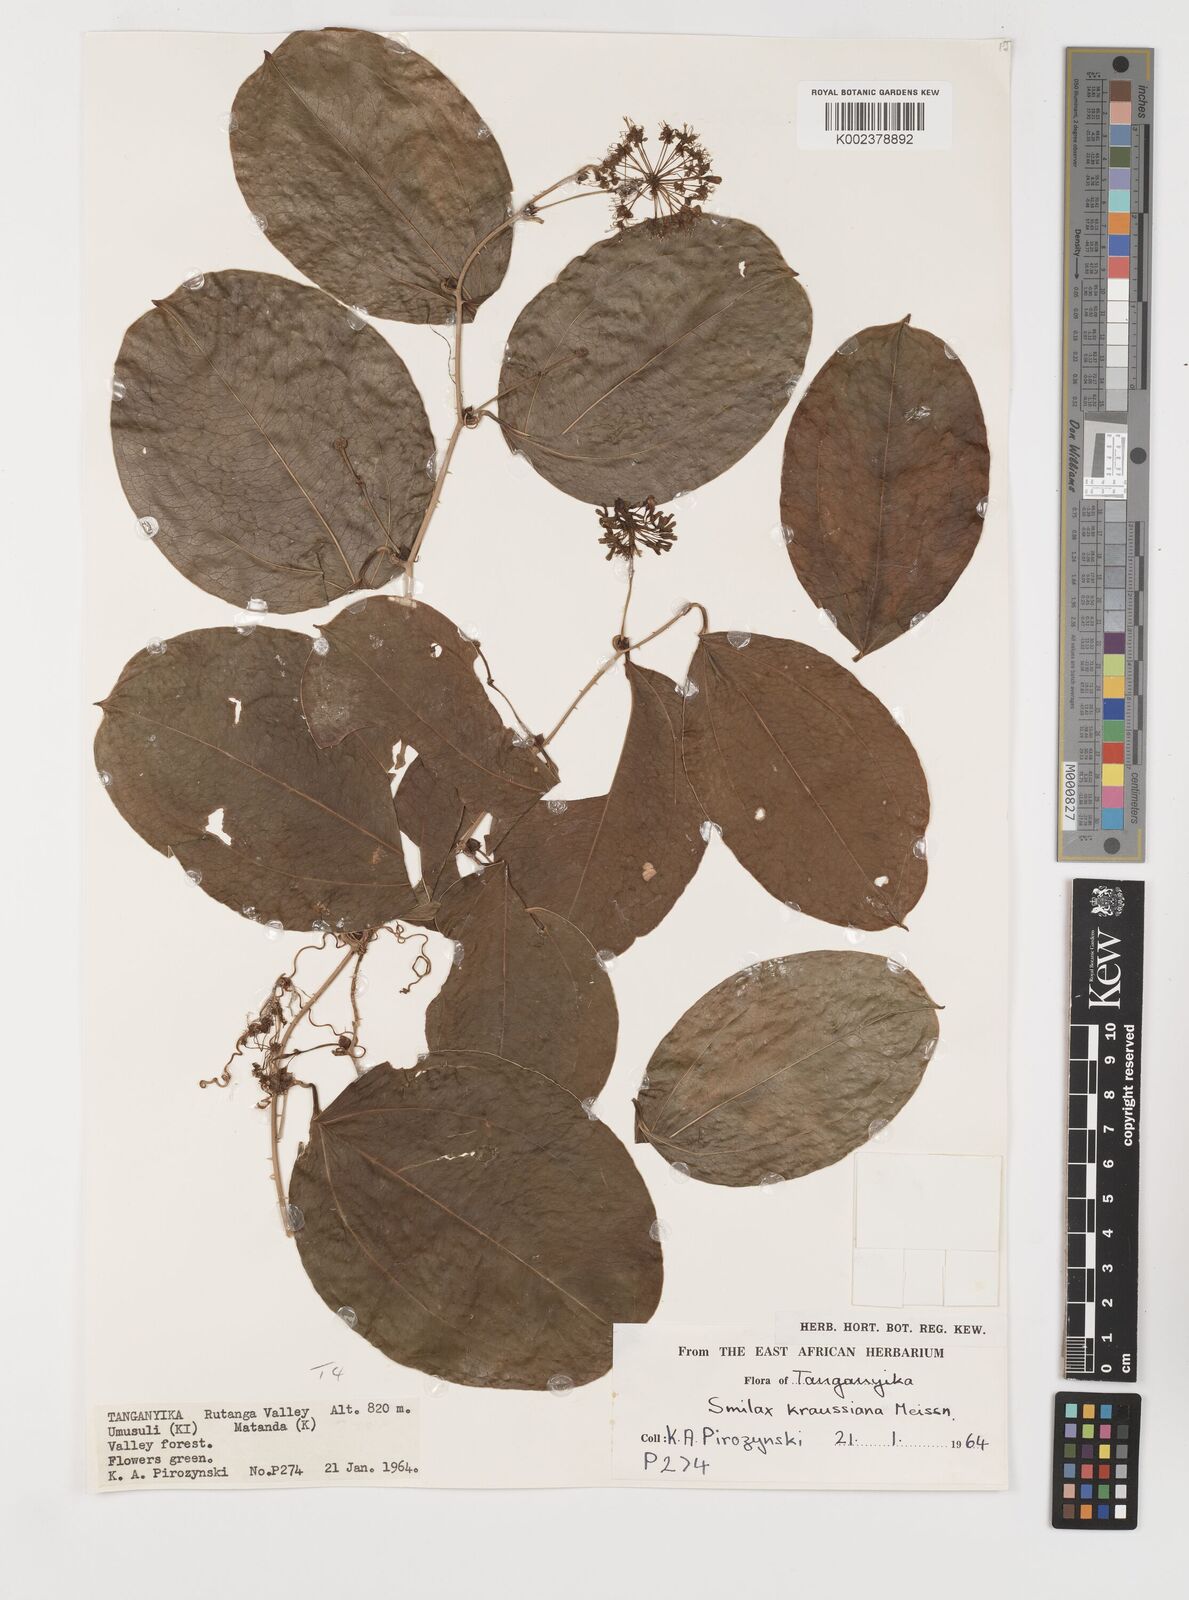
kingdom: Plantae
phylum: Tracheophyta
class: Liliopsida
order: Liliales
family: Smilacaceae
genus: Smilax
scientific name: Smilax anceps
